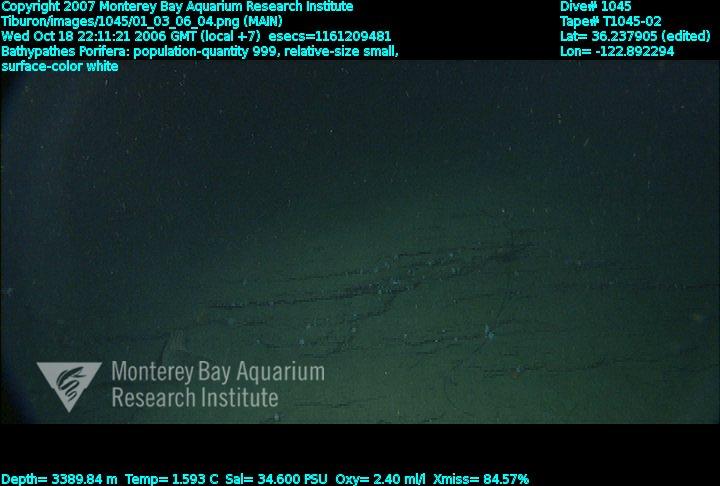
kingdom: Animalia
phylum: Porifera
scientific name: Porifera
